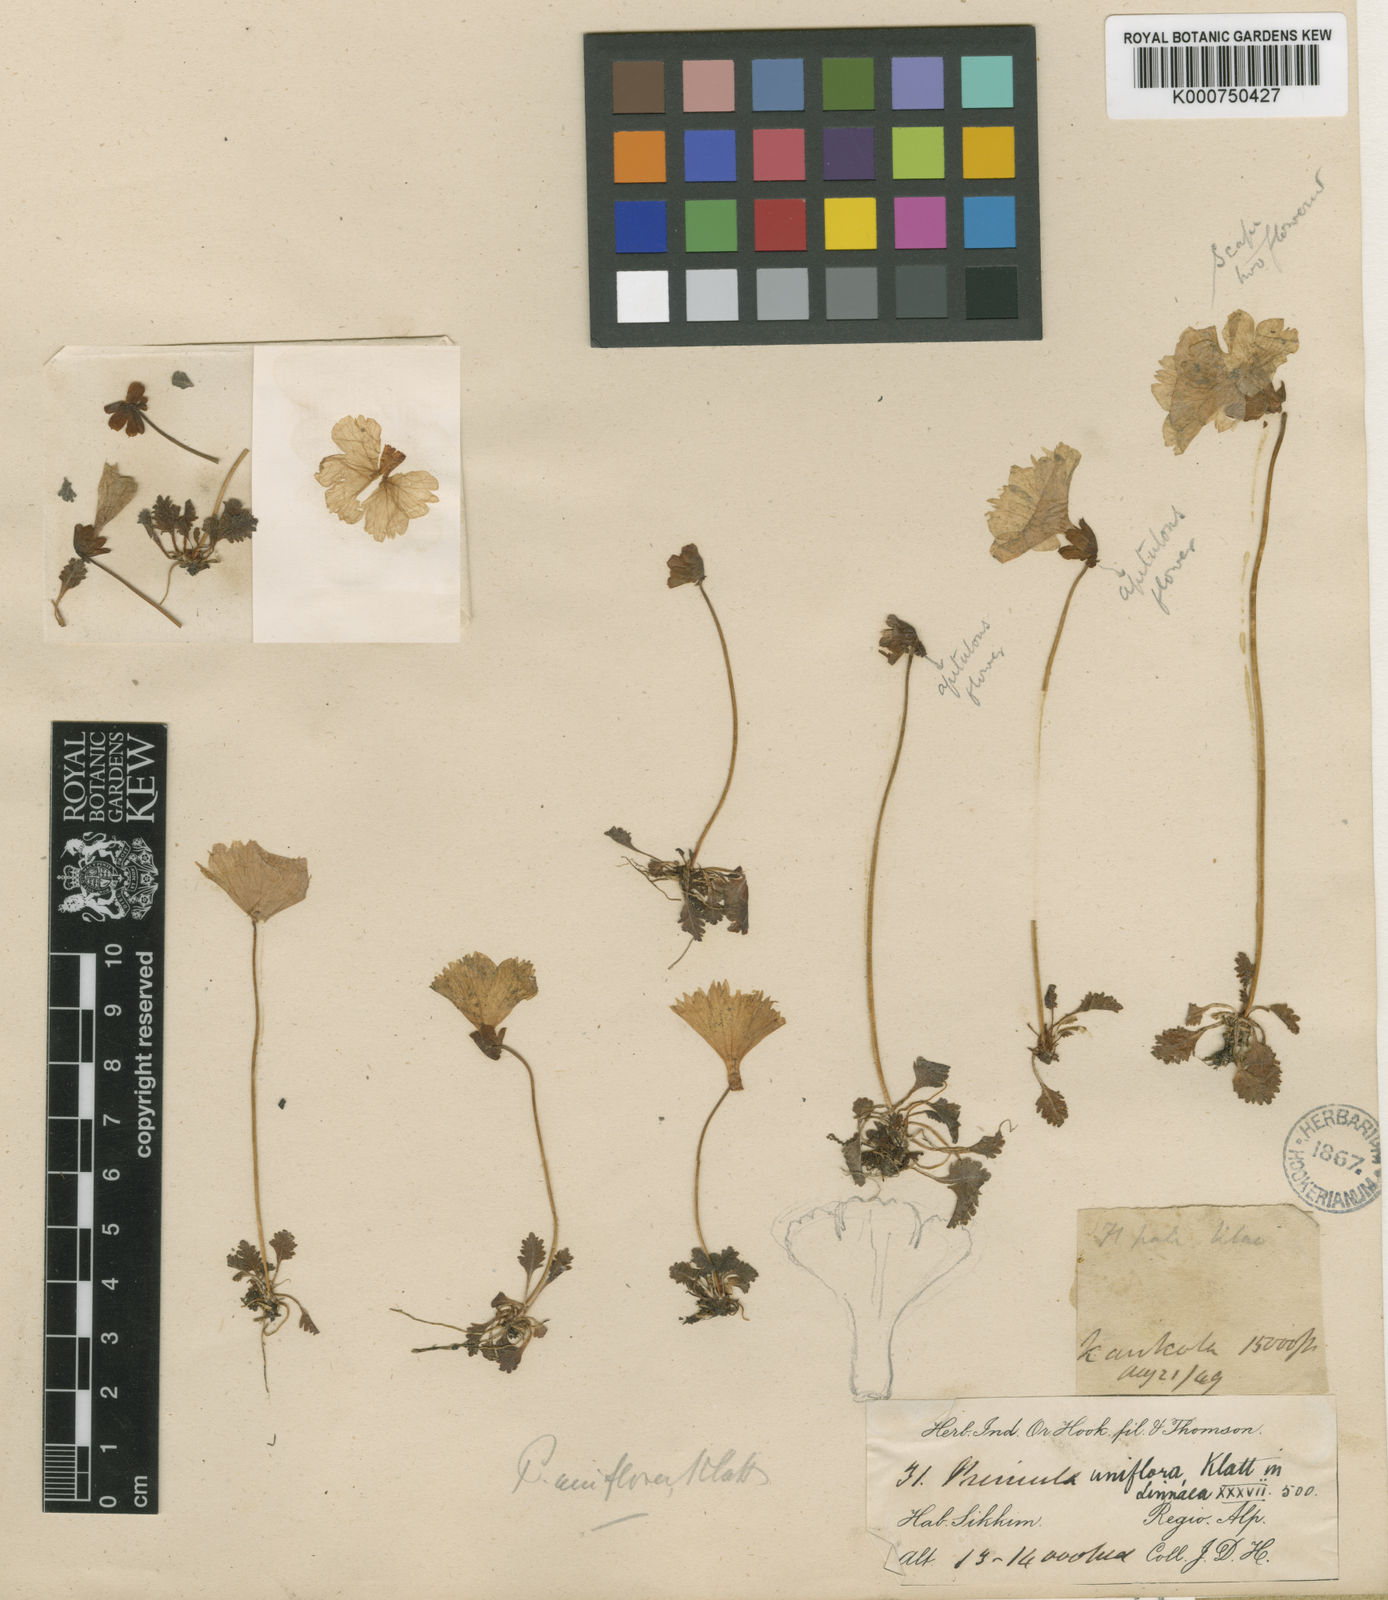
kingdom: Plantae
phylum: Tracheophyta
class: Magnoliopsida
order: Ericales
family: Primulaceae
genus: Primula
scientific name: Primula klattii
